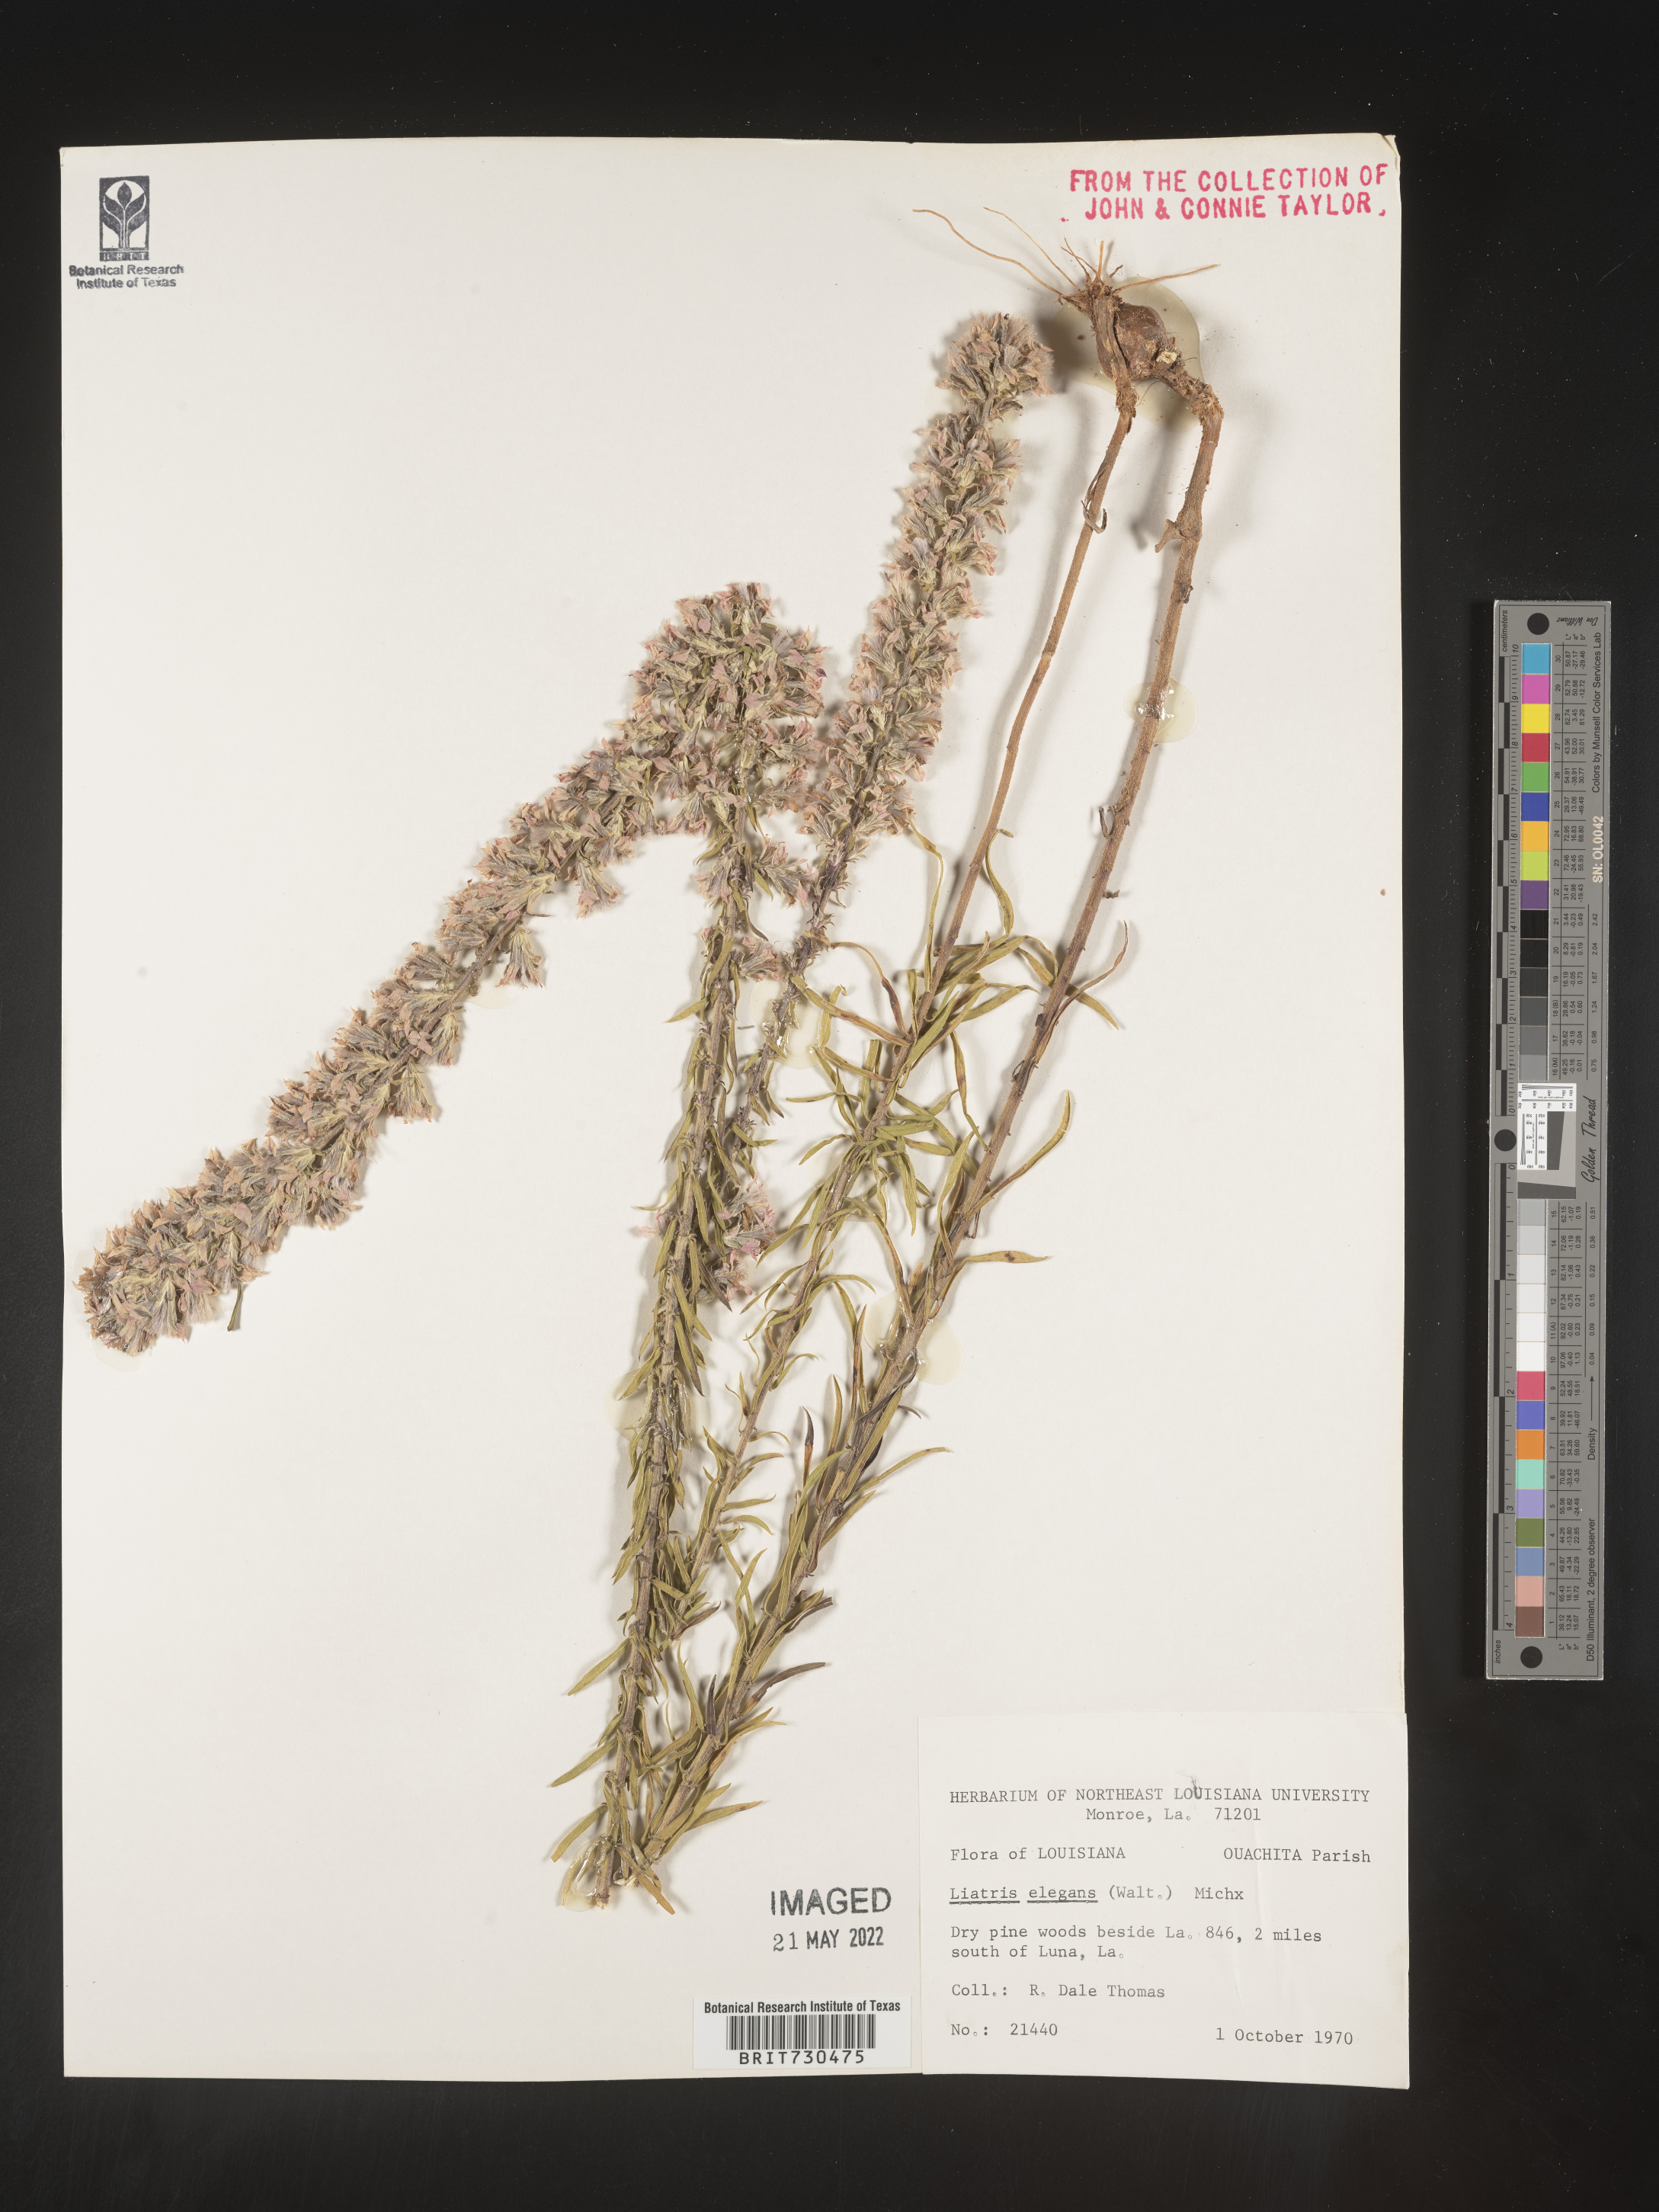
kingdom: Plantae
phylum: Tracheophyta
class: Magnoliopsida
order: Asterales
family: Asteraceae
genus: Liatris
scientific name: Liatris elegans
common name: Pinkscale gayfeather
